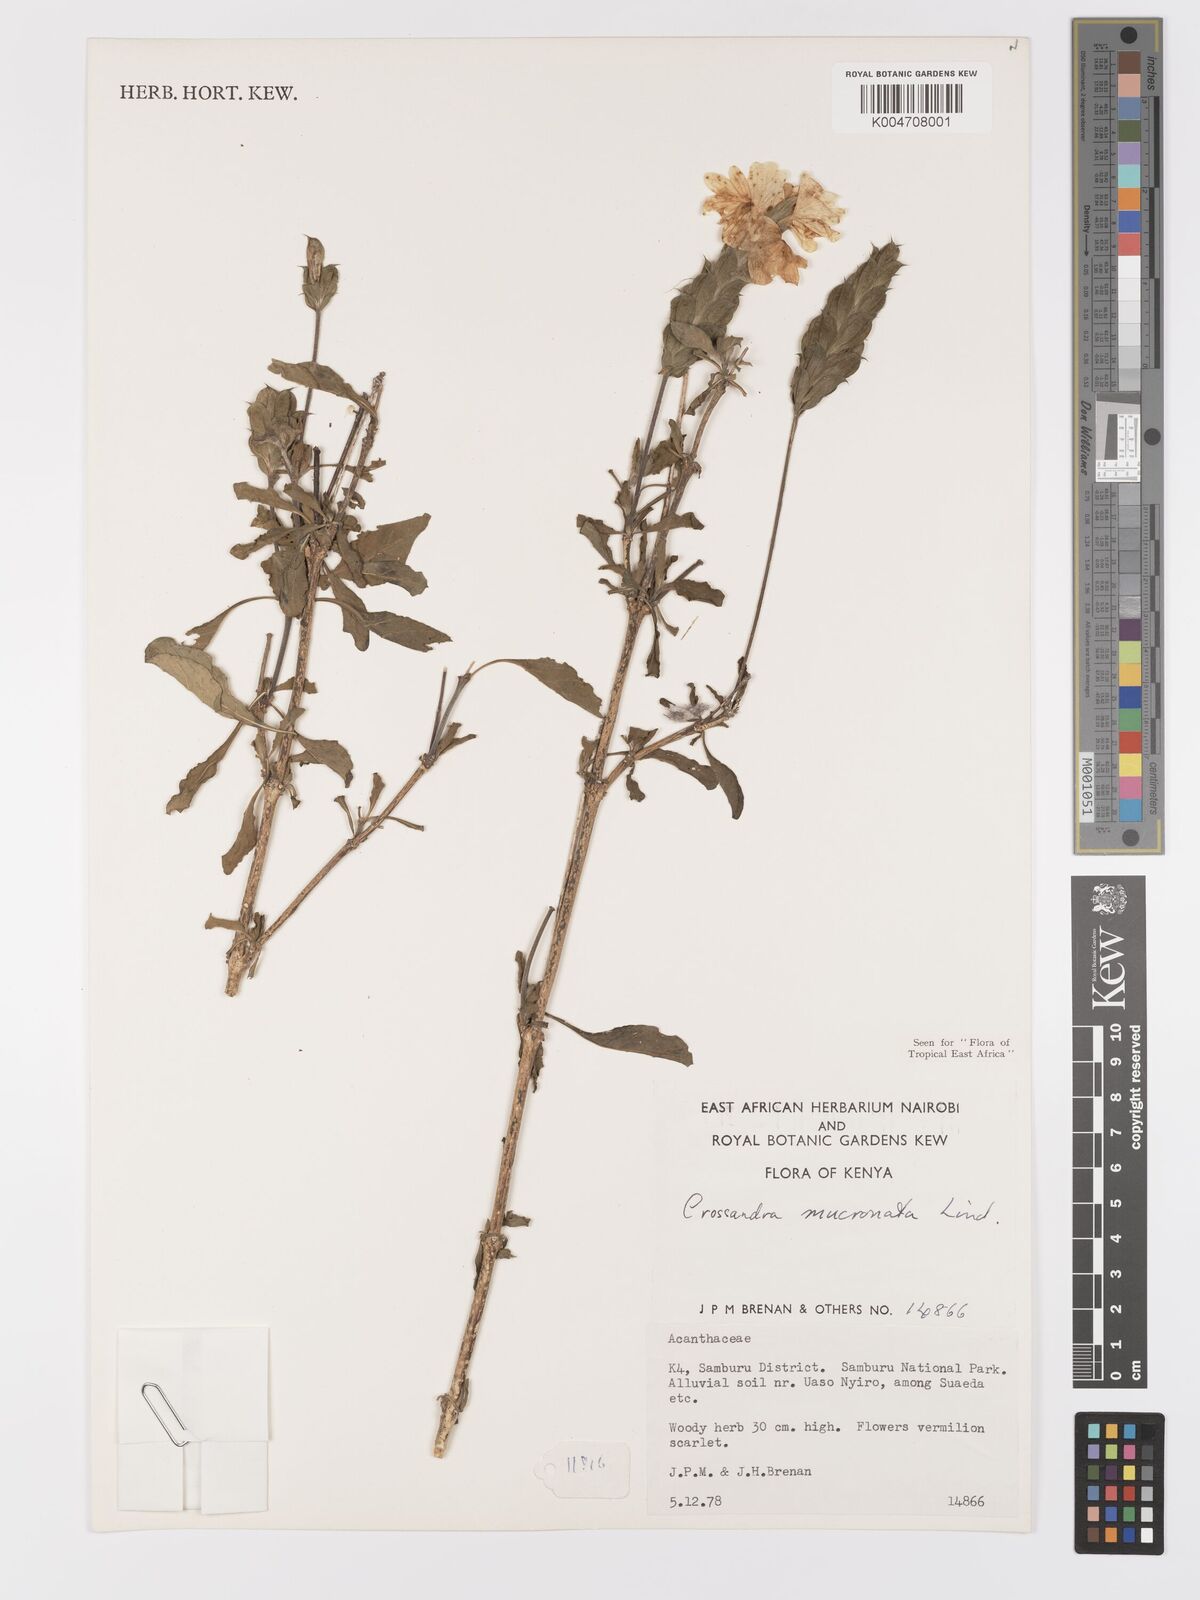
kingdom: Plantae
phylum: Tracheophyta
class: Magnoliopsida
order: Lamiales
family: Acanthaceae
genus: Crossandra
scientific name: Crossandra mucronata
